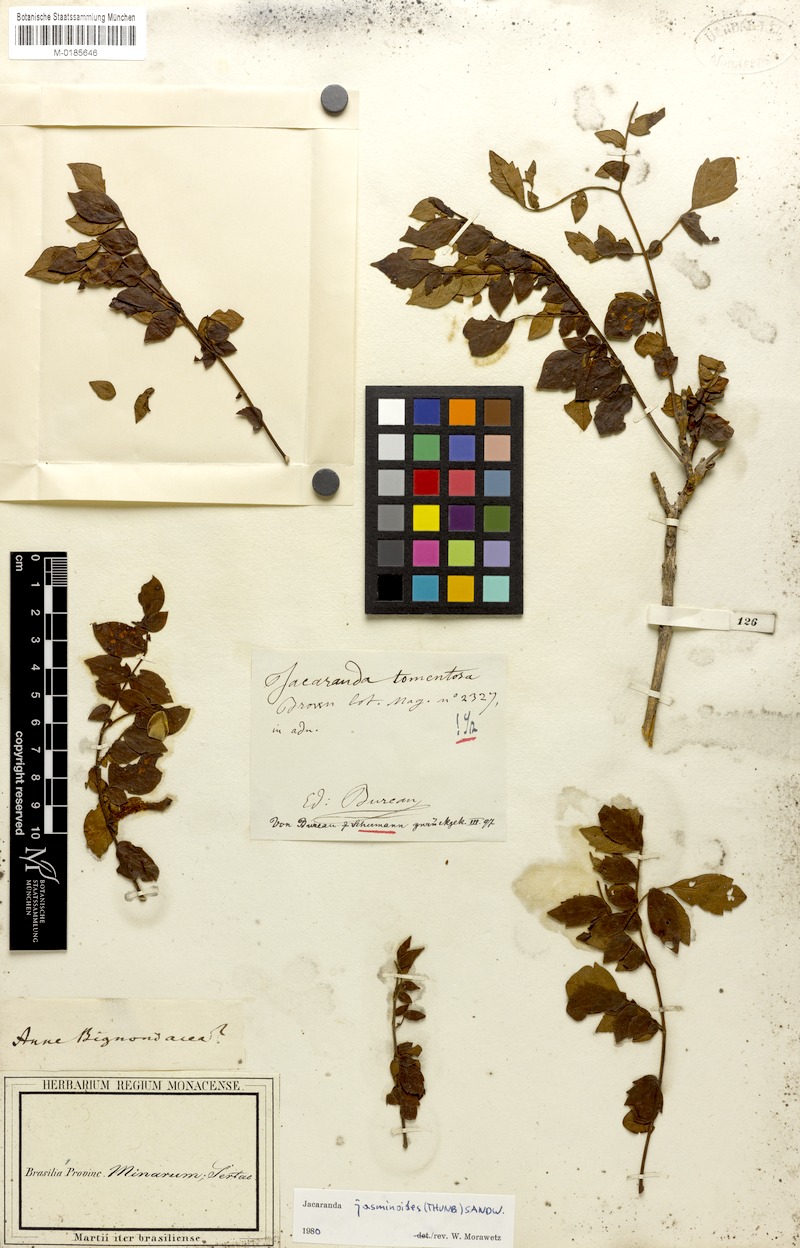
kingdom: Plantae
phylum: Tracheophyta
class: Magnoliopsida
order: Lamiales
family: Bignoniaceae
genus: Jacaranda
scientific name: Jacaranda jasminoides
